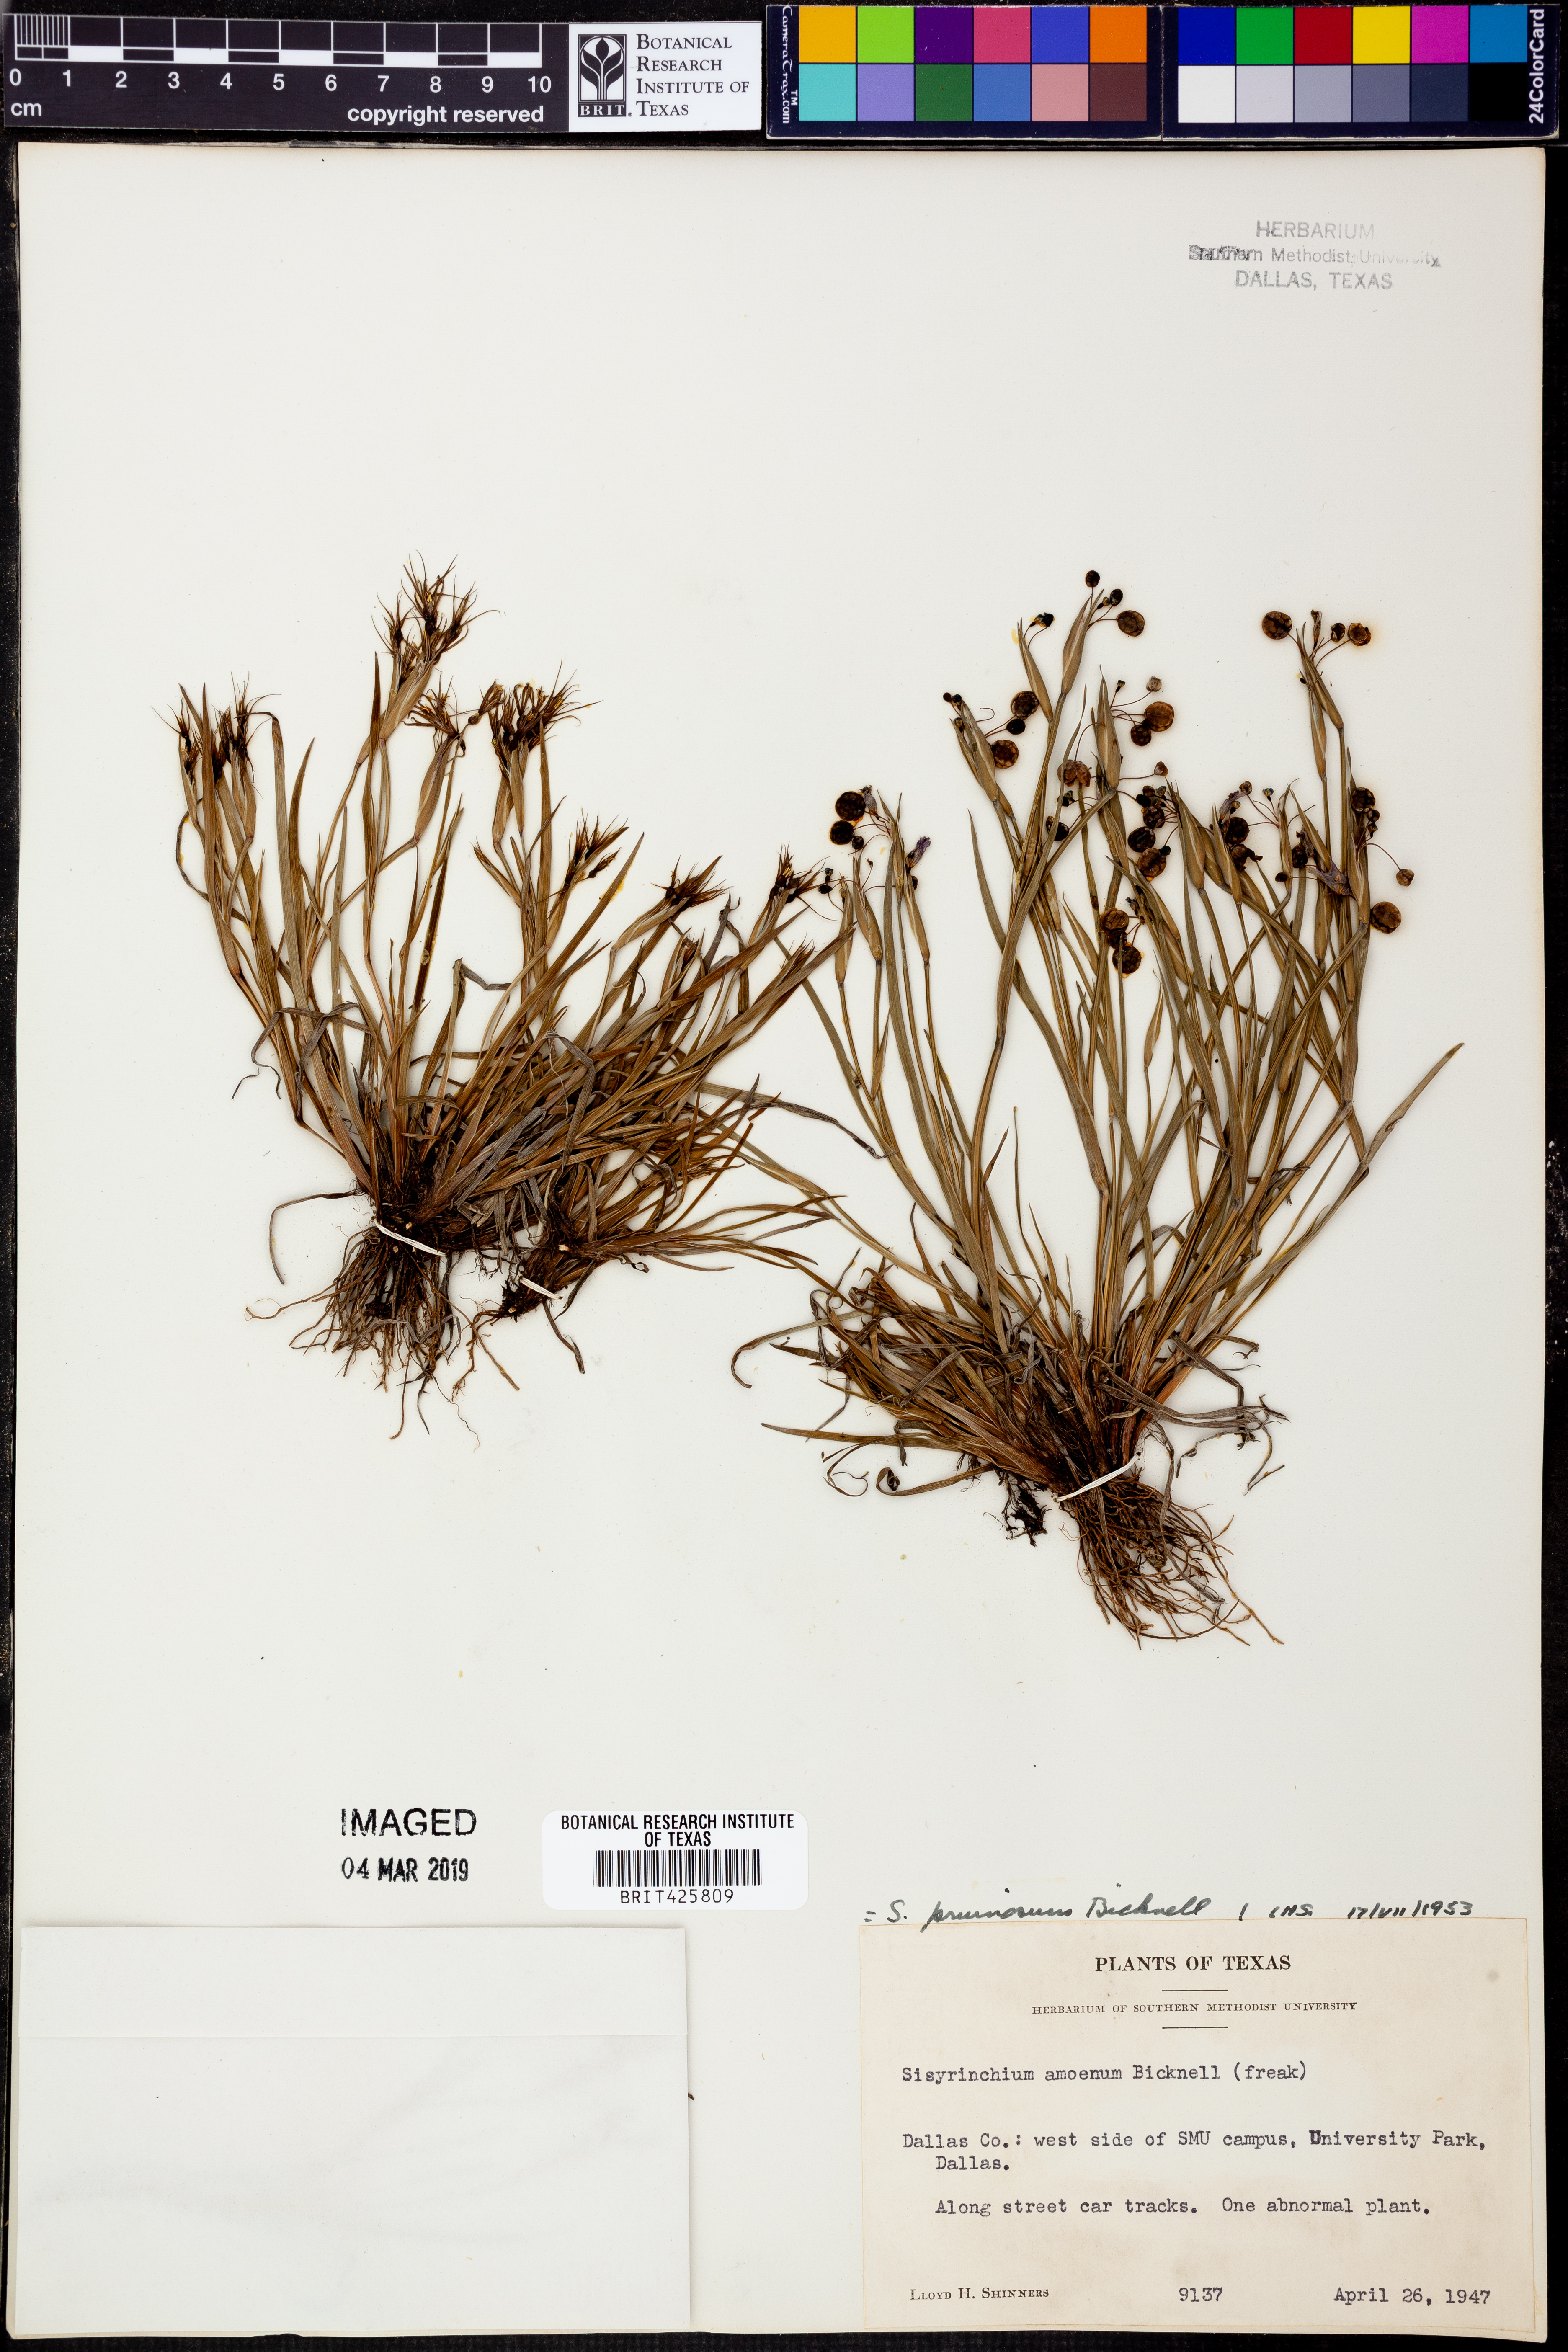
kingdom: Plantae
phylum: Tracheophyta
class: Liliopsida
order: Asparagales
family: Iridaceae
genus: Sisyrinchium
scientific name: Sisyrinchium pruinosum
